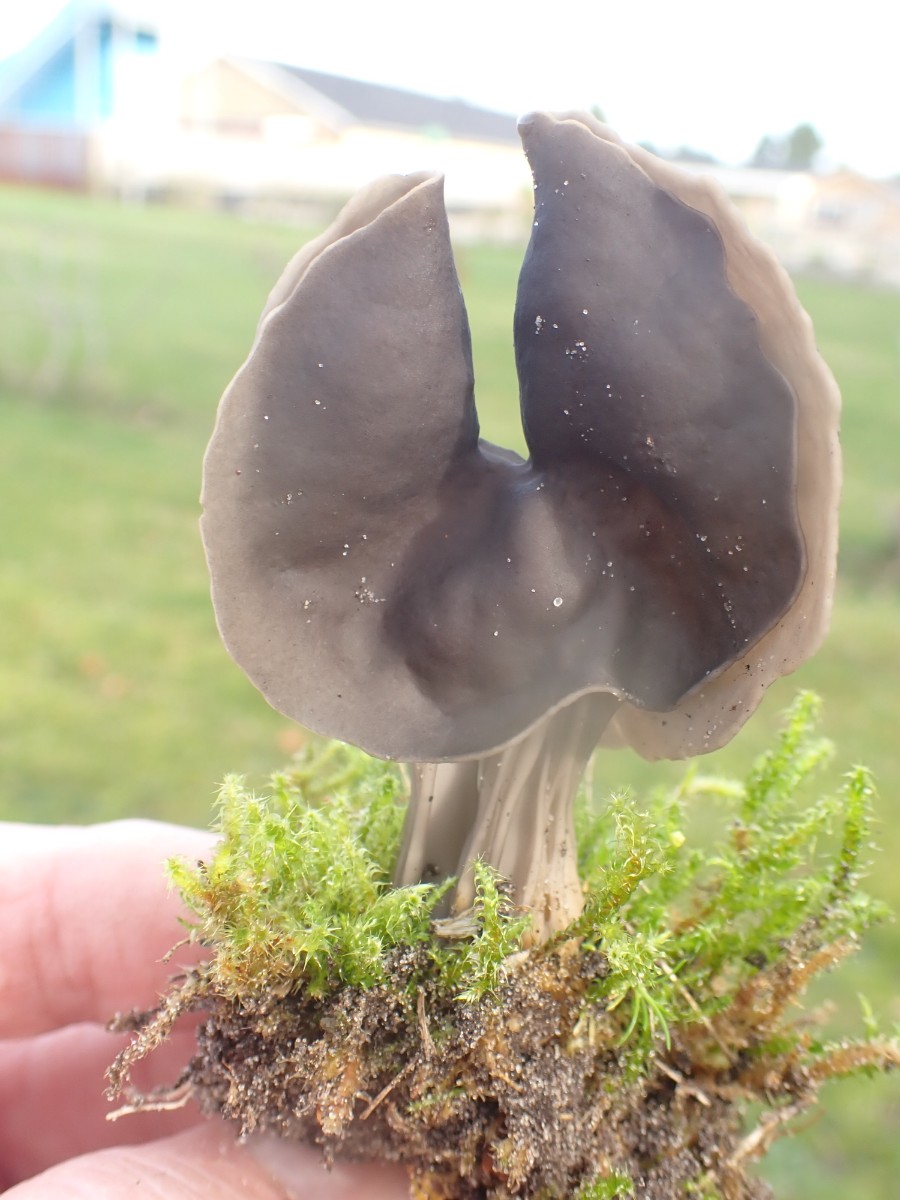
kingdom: Fungi
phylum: Ascomycota
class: Pezizomycetes
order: Pezizales
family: Helvellaceae
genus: Helvella
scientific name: Helvella lacunosa
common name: grubet foldhat
